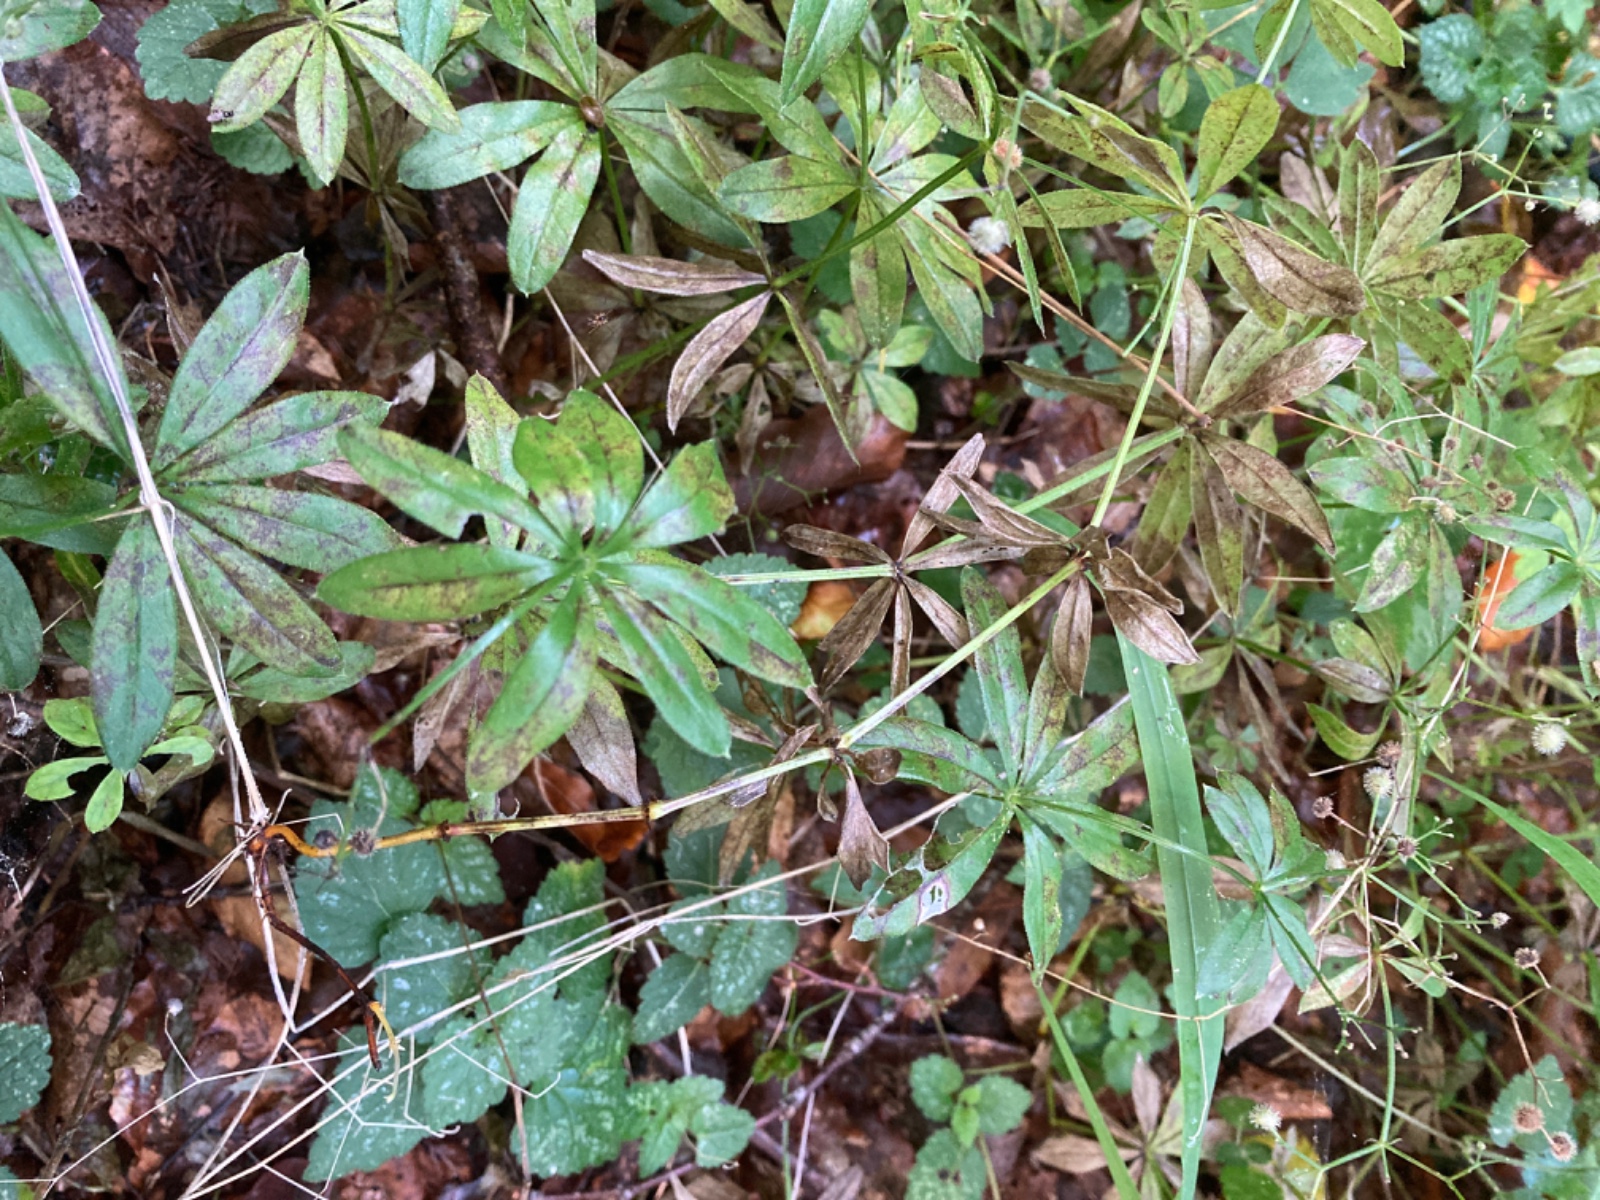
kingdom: Fungi
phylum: Basidiomycota
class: Pucciniomycetes
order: Pucciniales
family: Pucciniastraceae
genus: Pucciniastrum
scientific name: Pucciniastrum guttatum
